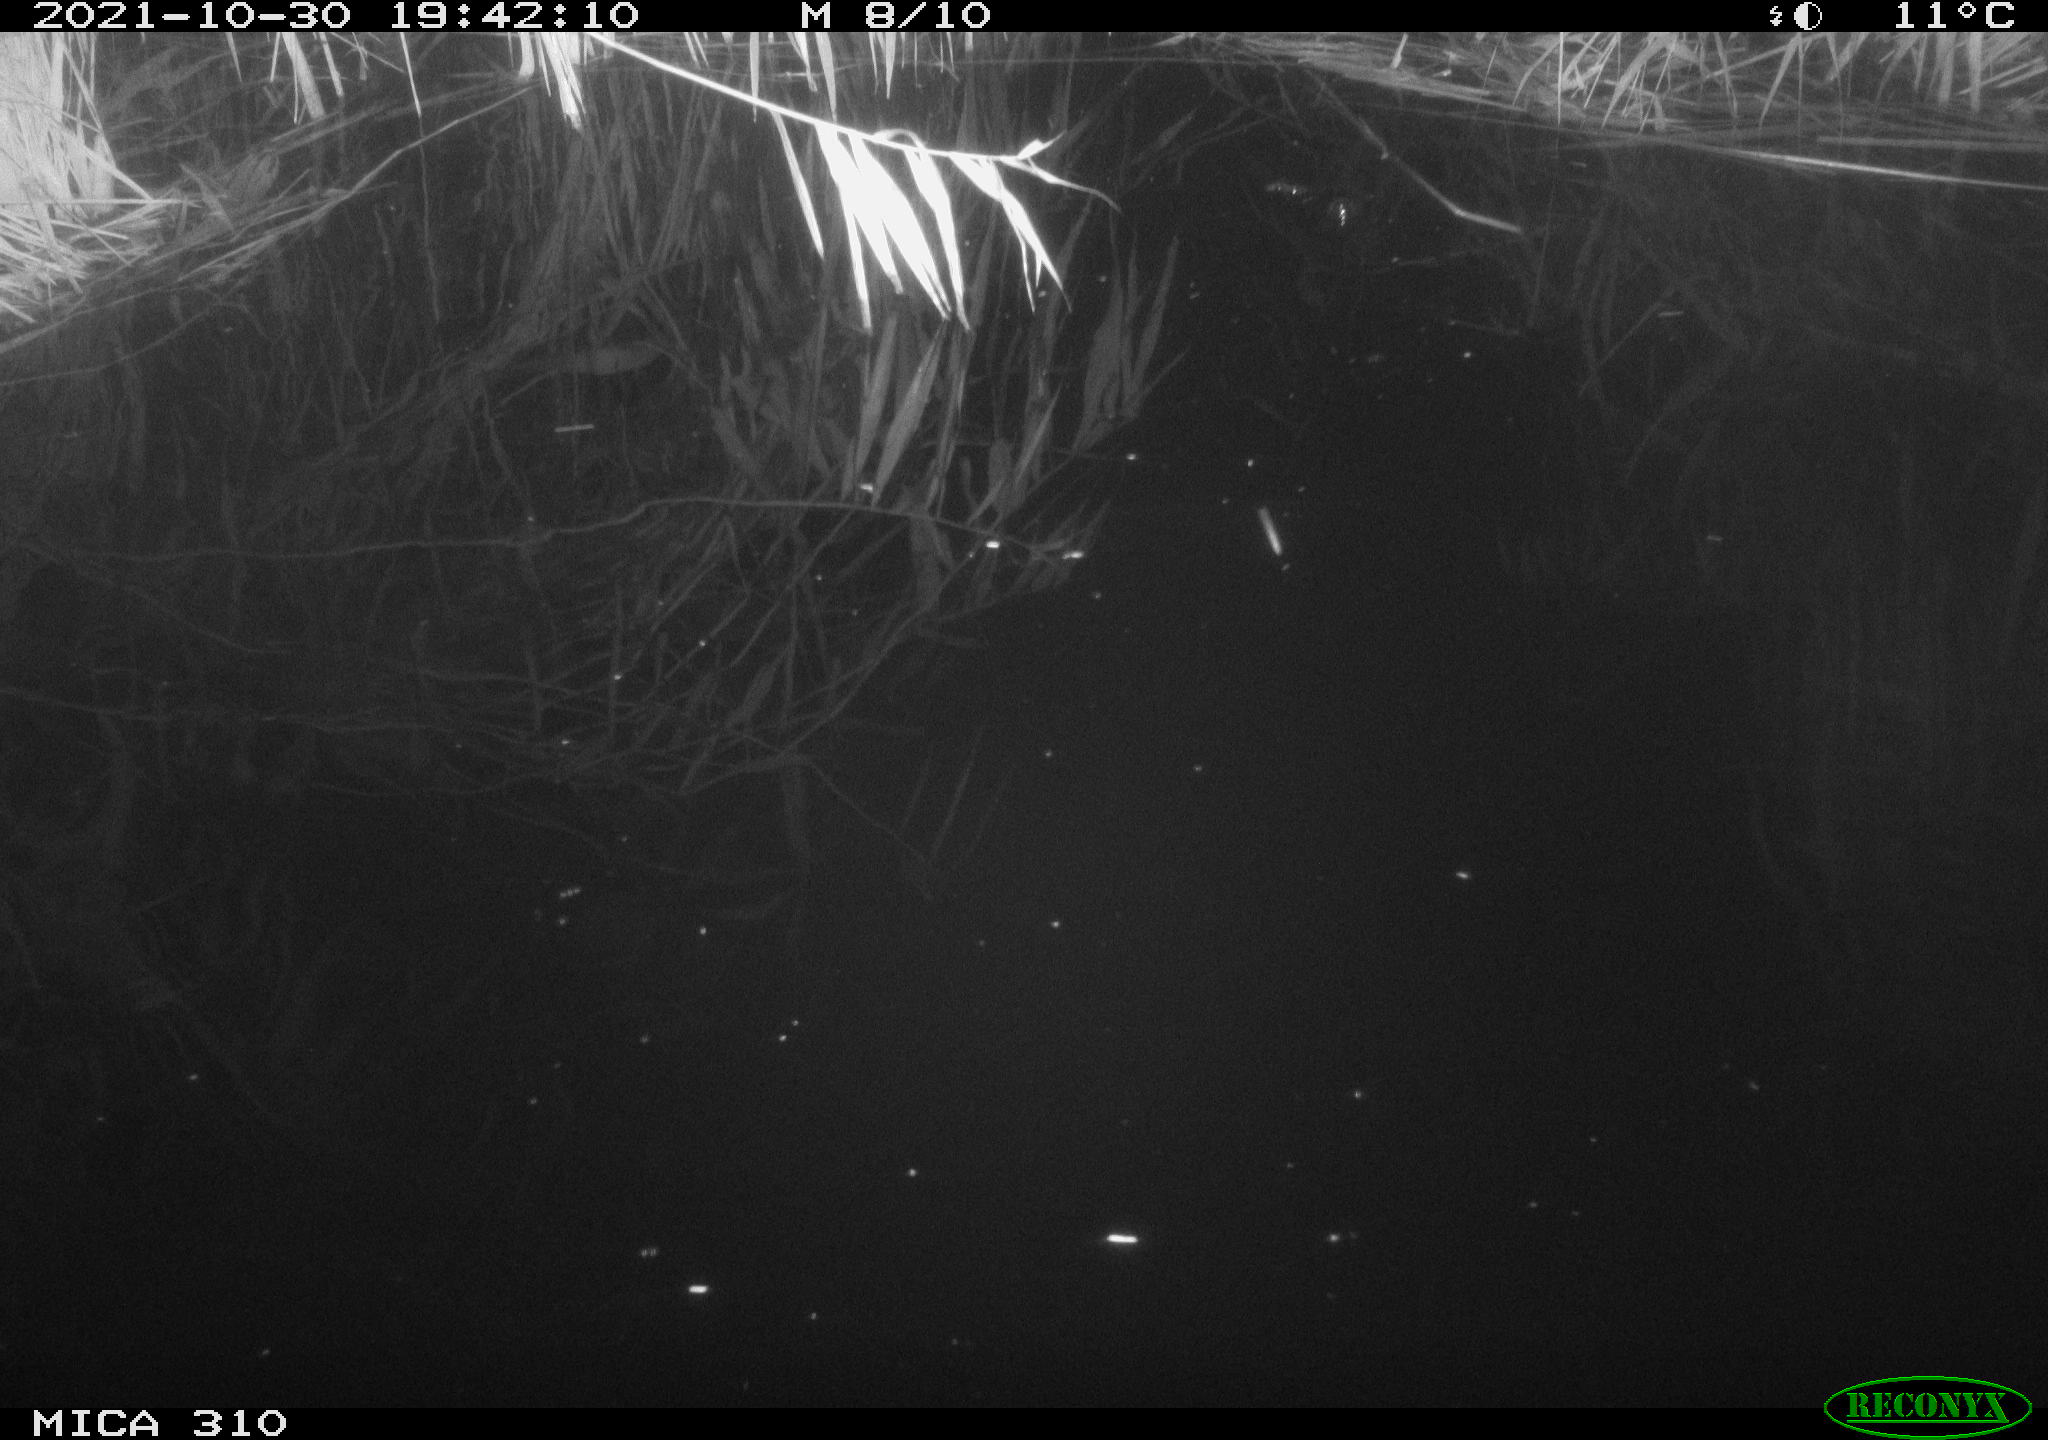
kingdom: Animalia
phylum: Chordata
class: Mammalia
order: Rodentia
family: Muridae
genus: Rattus
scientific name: Rattus norvegicus
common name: Brown rat
